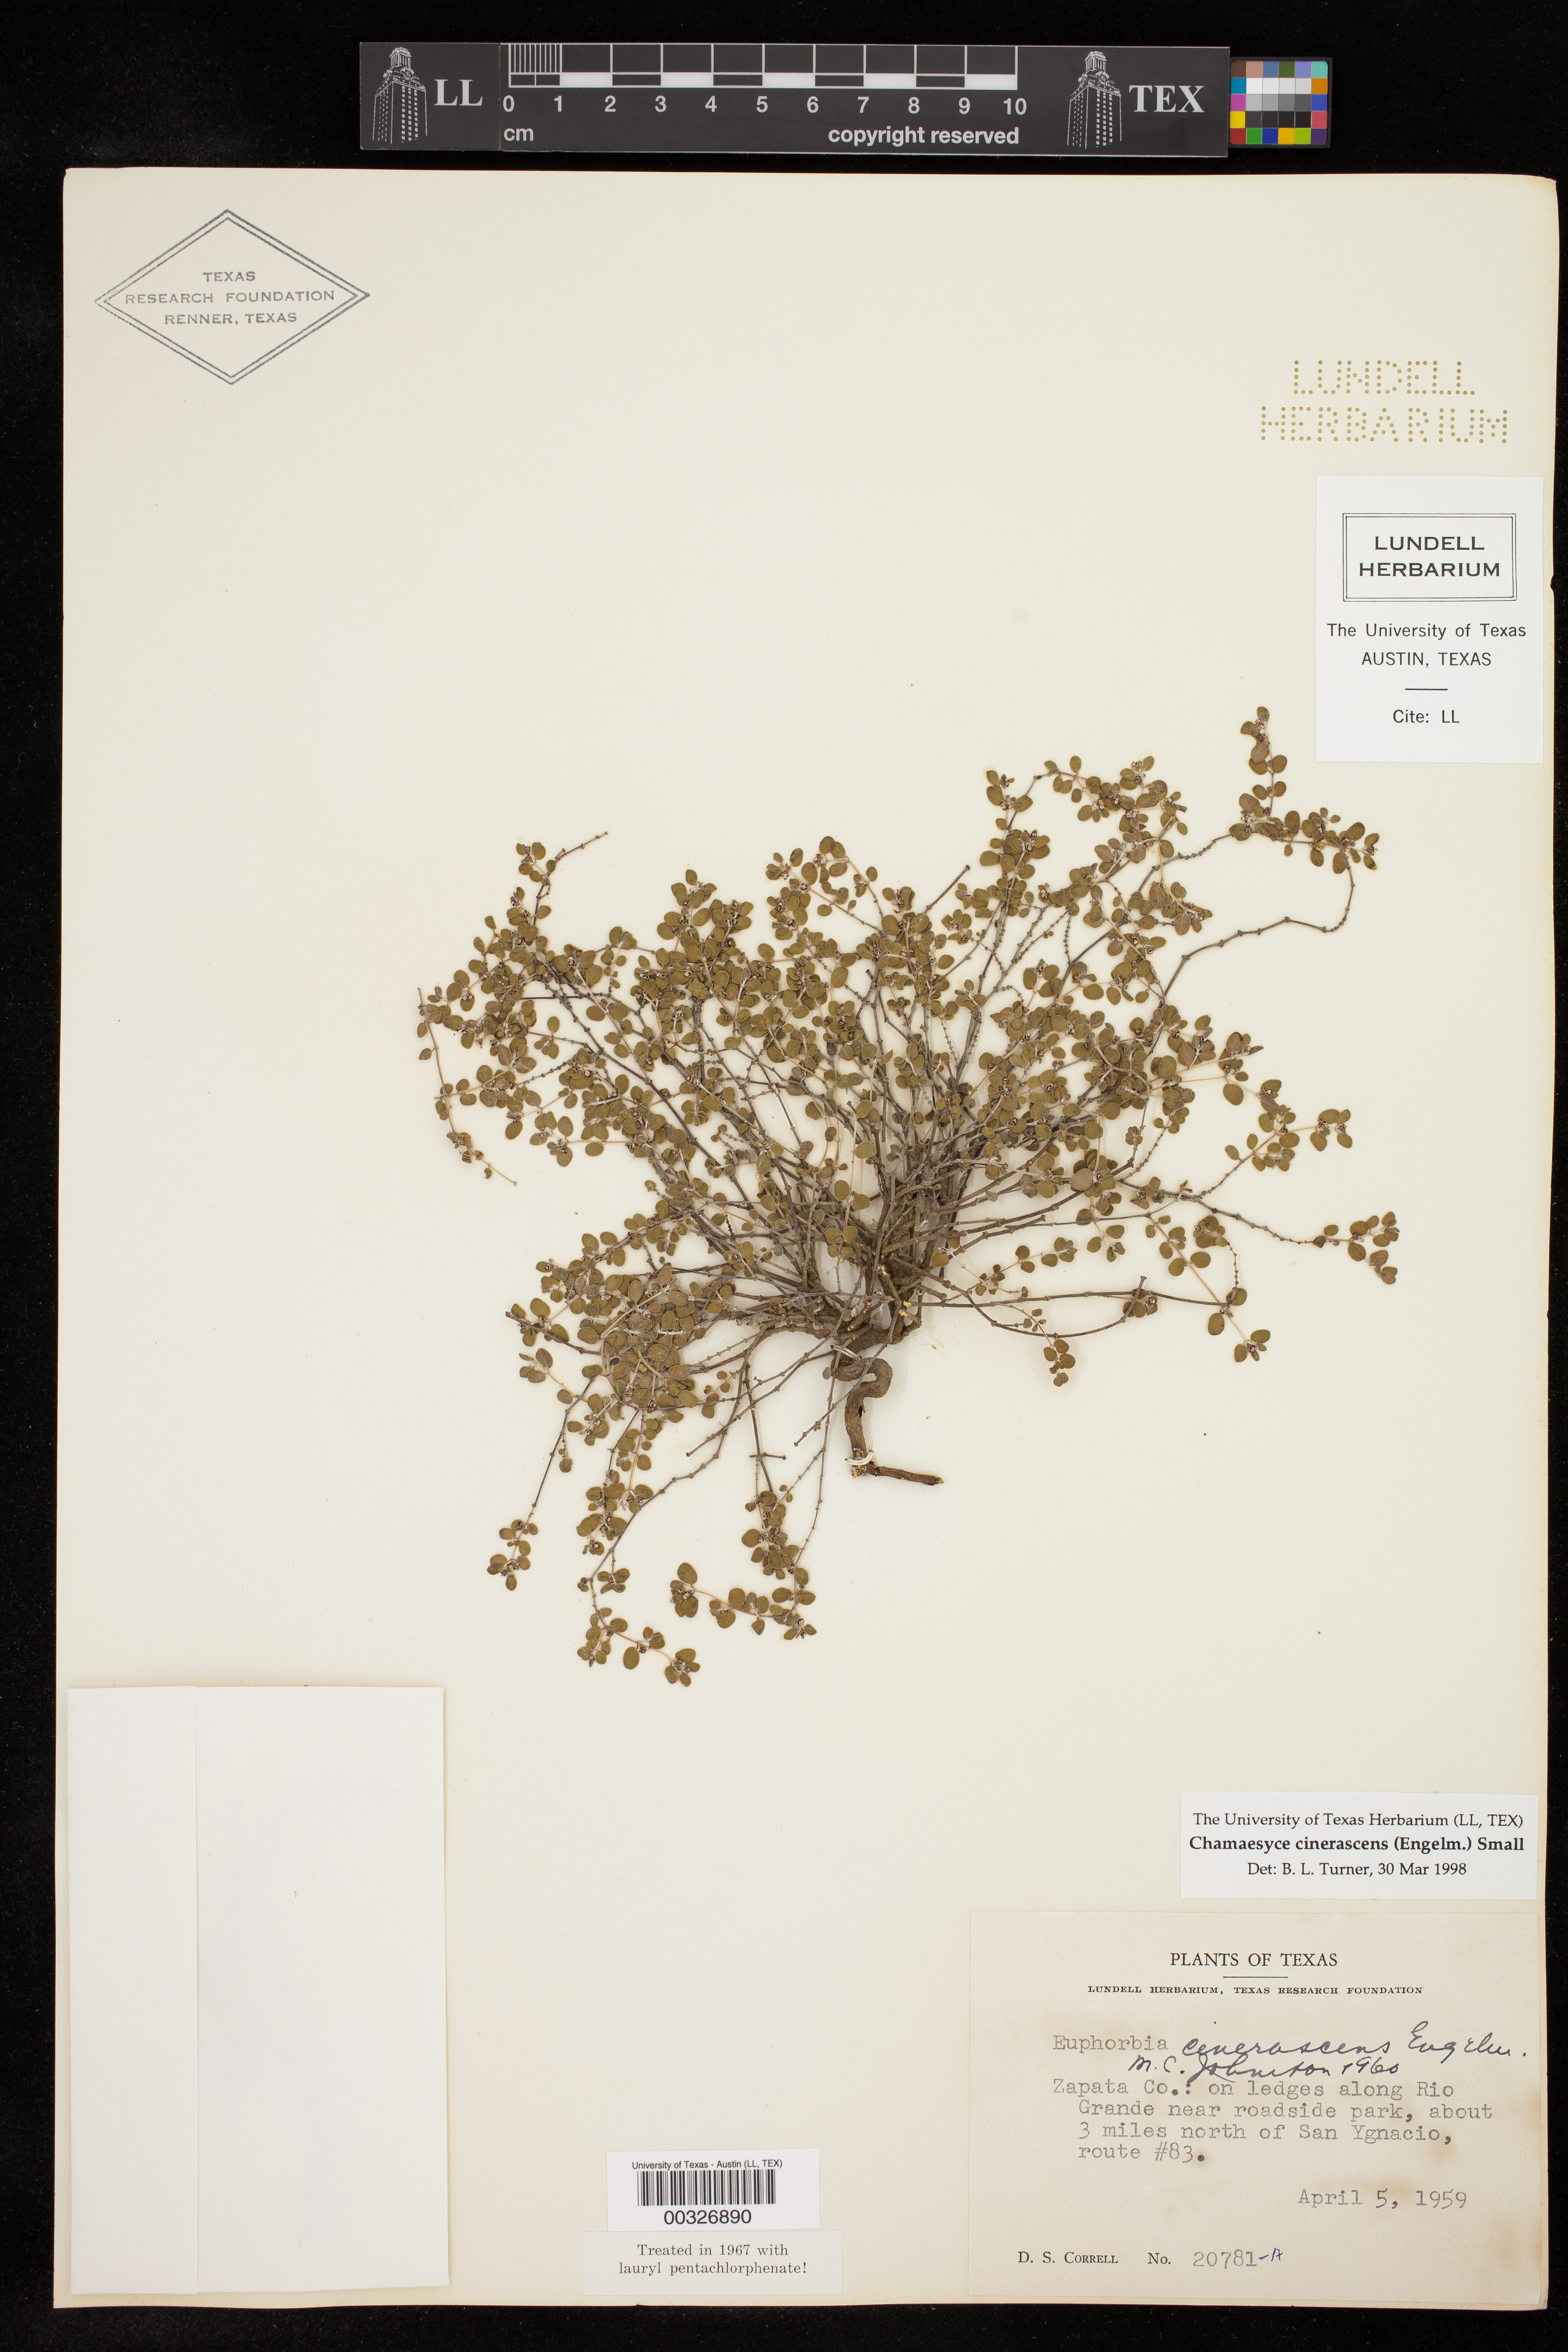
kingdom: Plantae
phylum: Tracheophyta
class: Magnoliopsida
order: Malpighiales
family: Euphorbiaceae
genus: Euphorbia
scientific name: Euphorbia cinerascens
